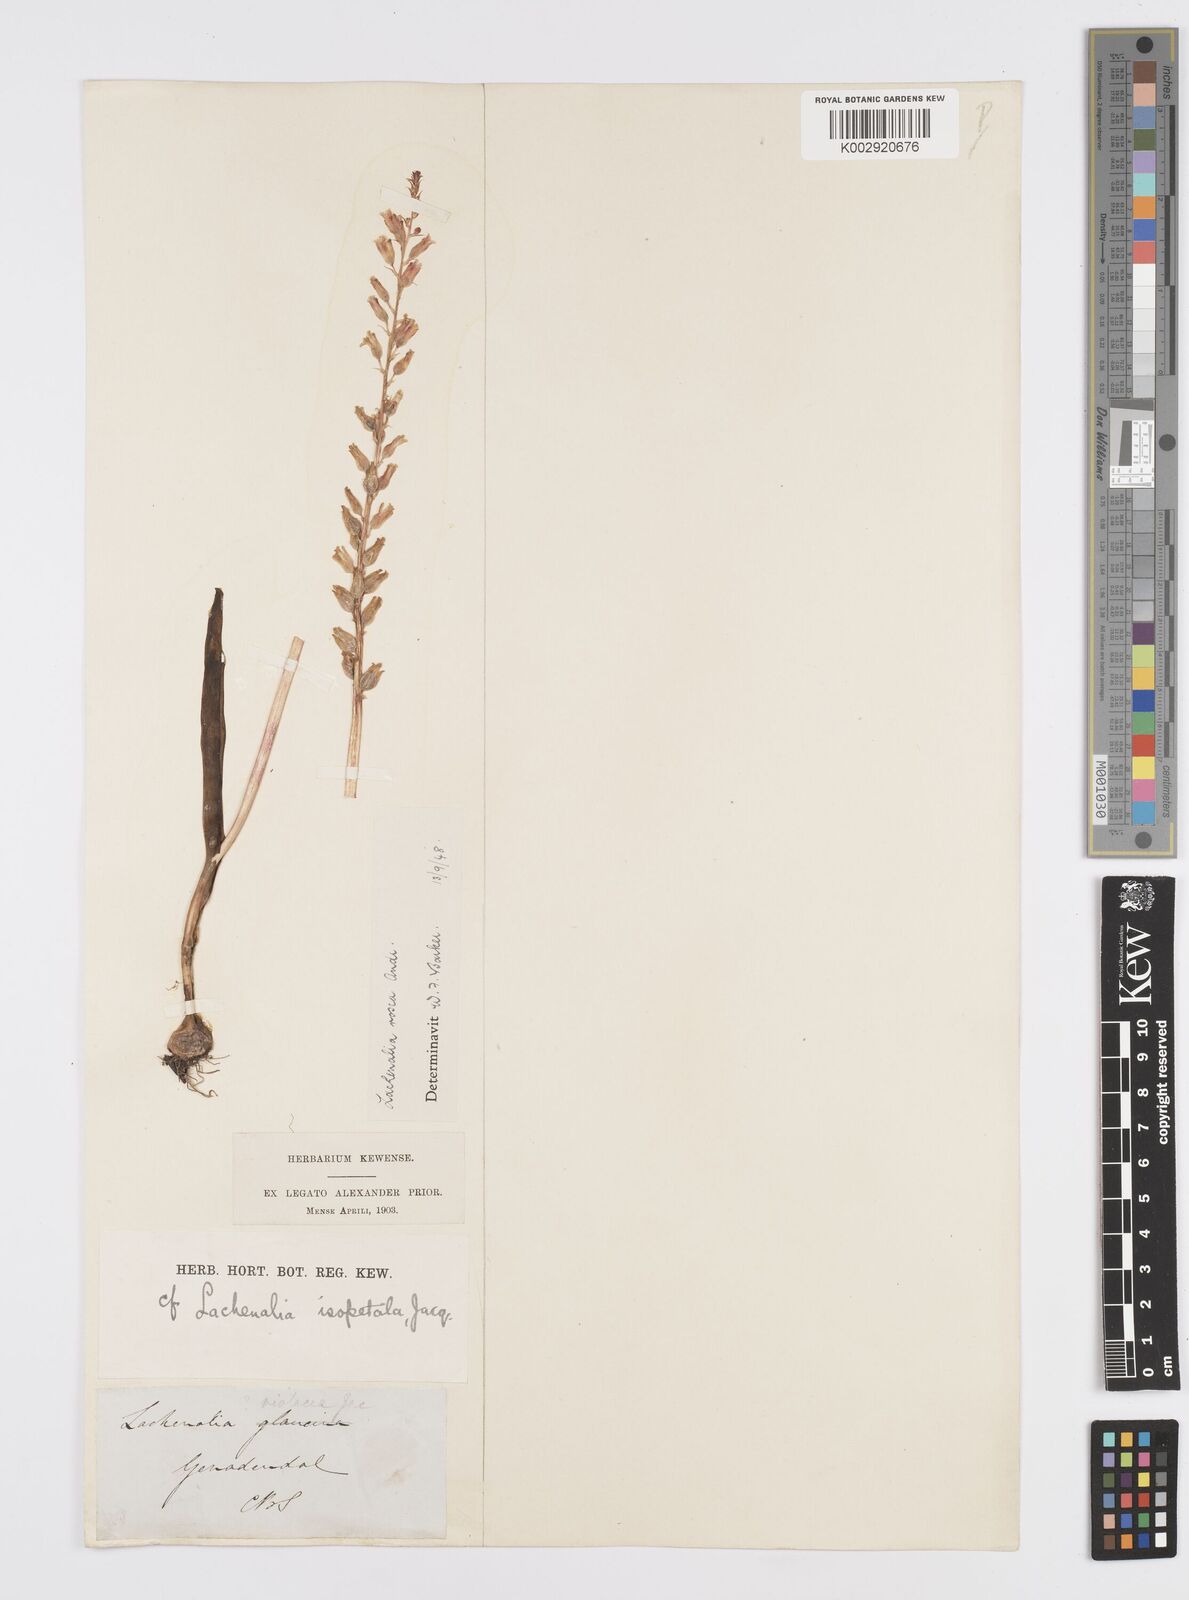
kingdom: Plantae
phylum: Tracheophyta
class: Liliopsida
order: Asparagales
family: Asparagaceae
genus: Lachenalia
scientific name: Lachenalia rosea
